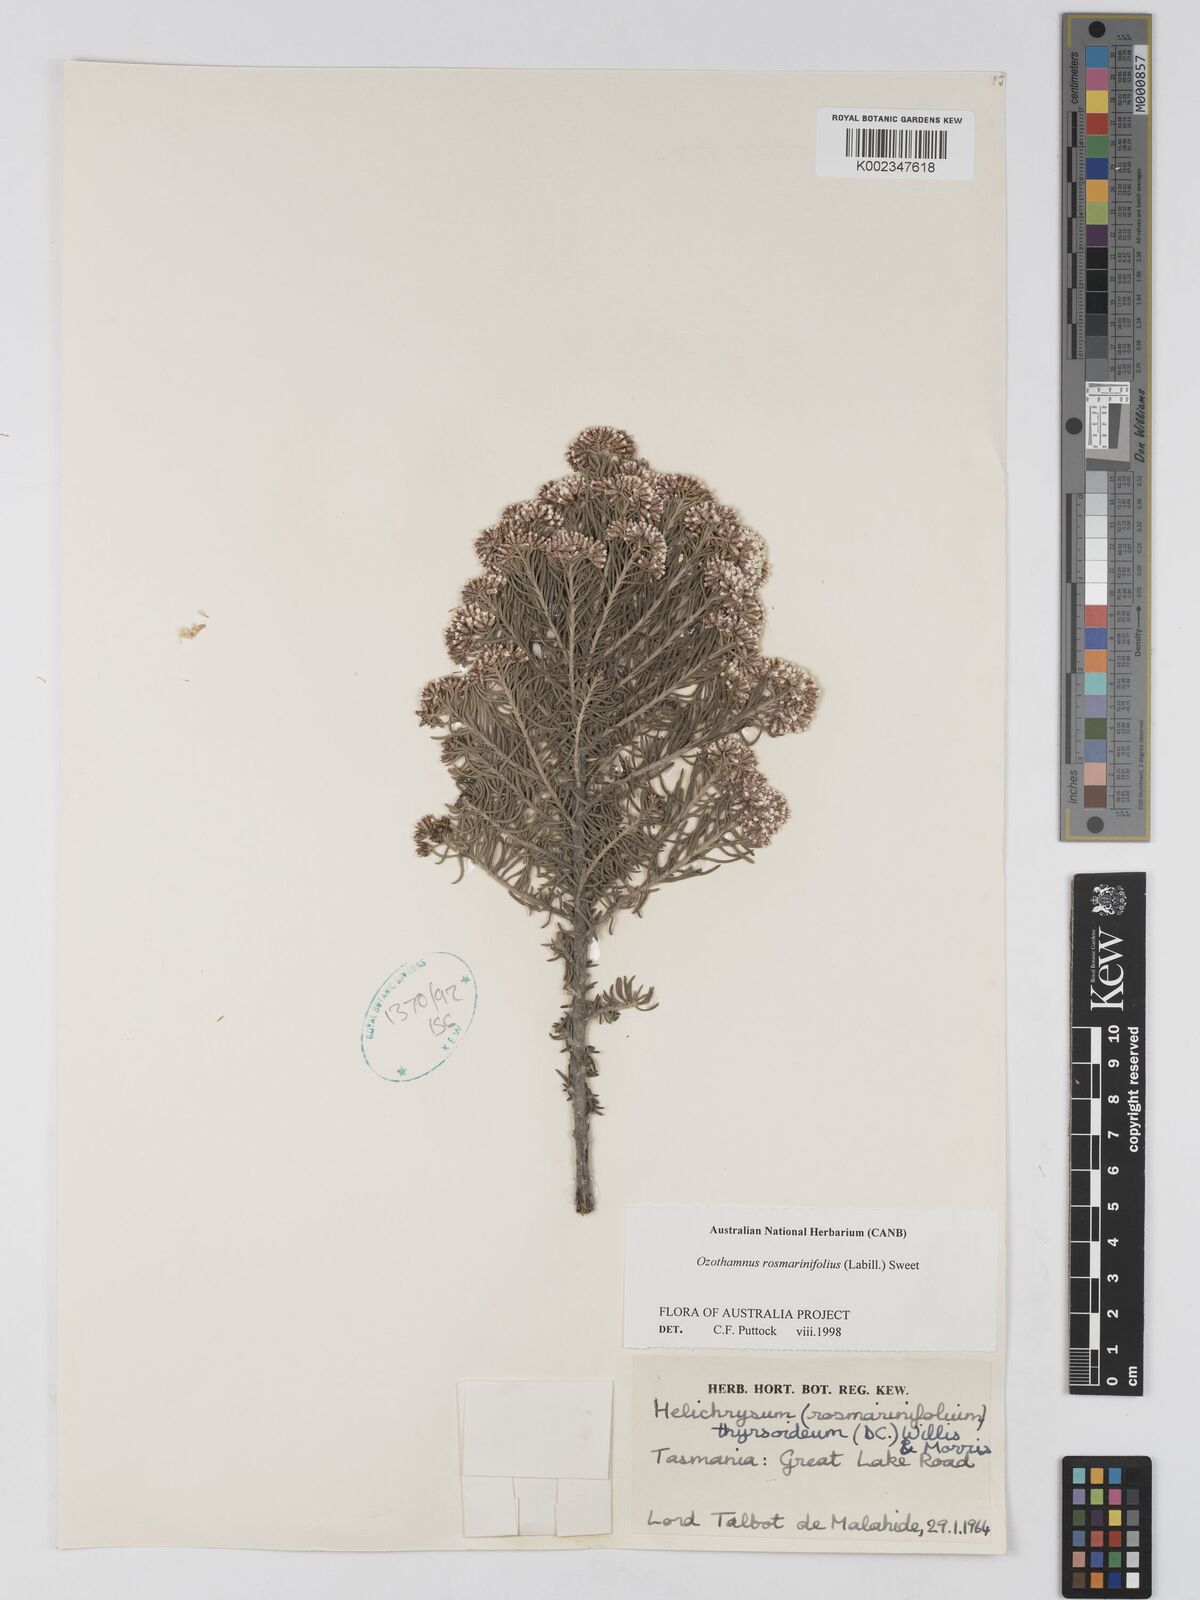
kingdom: Plantae
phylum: Tracheophyta
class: Magnoliopsida
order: Asterales
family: Asteraceae
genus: Ozothamnus
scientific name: Ozothamnus rosmarinifolius
